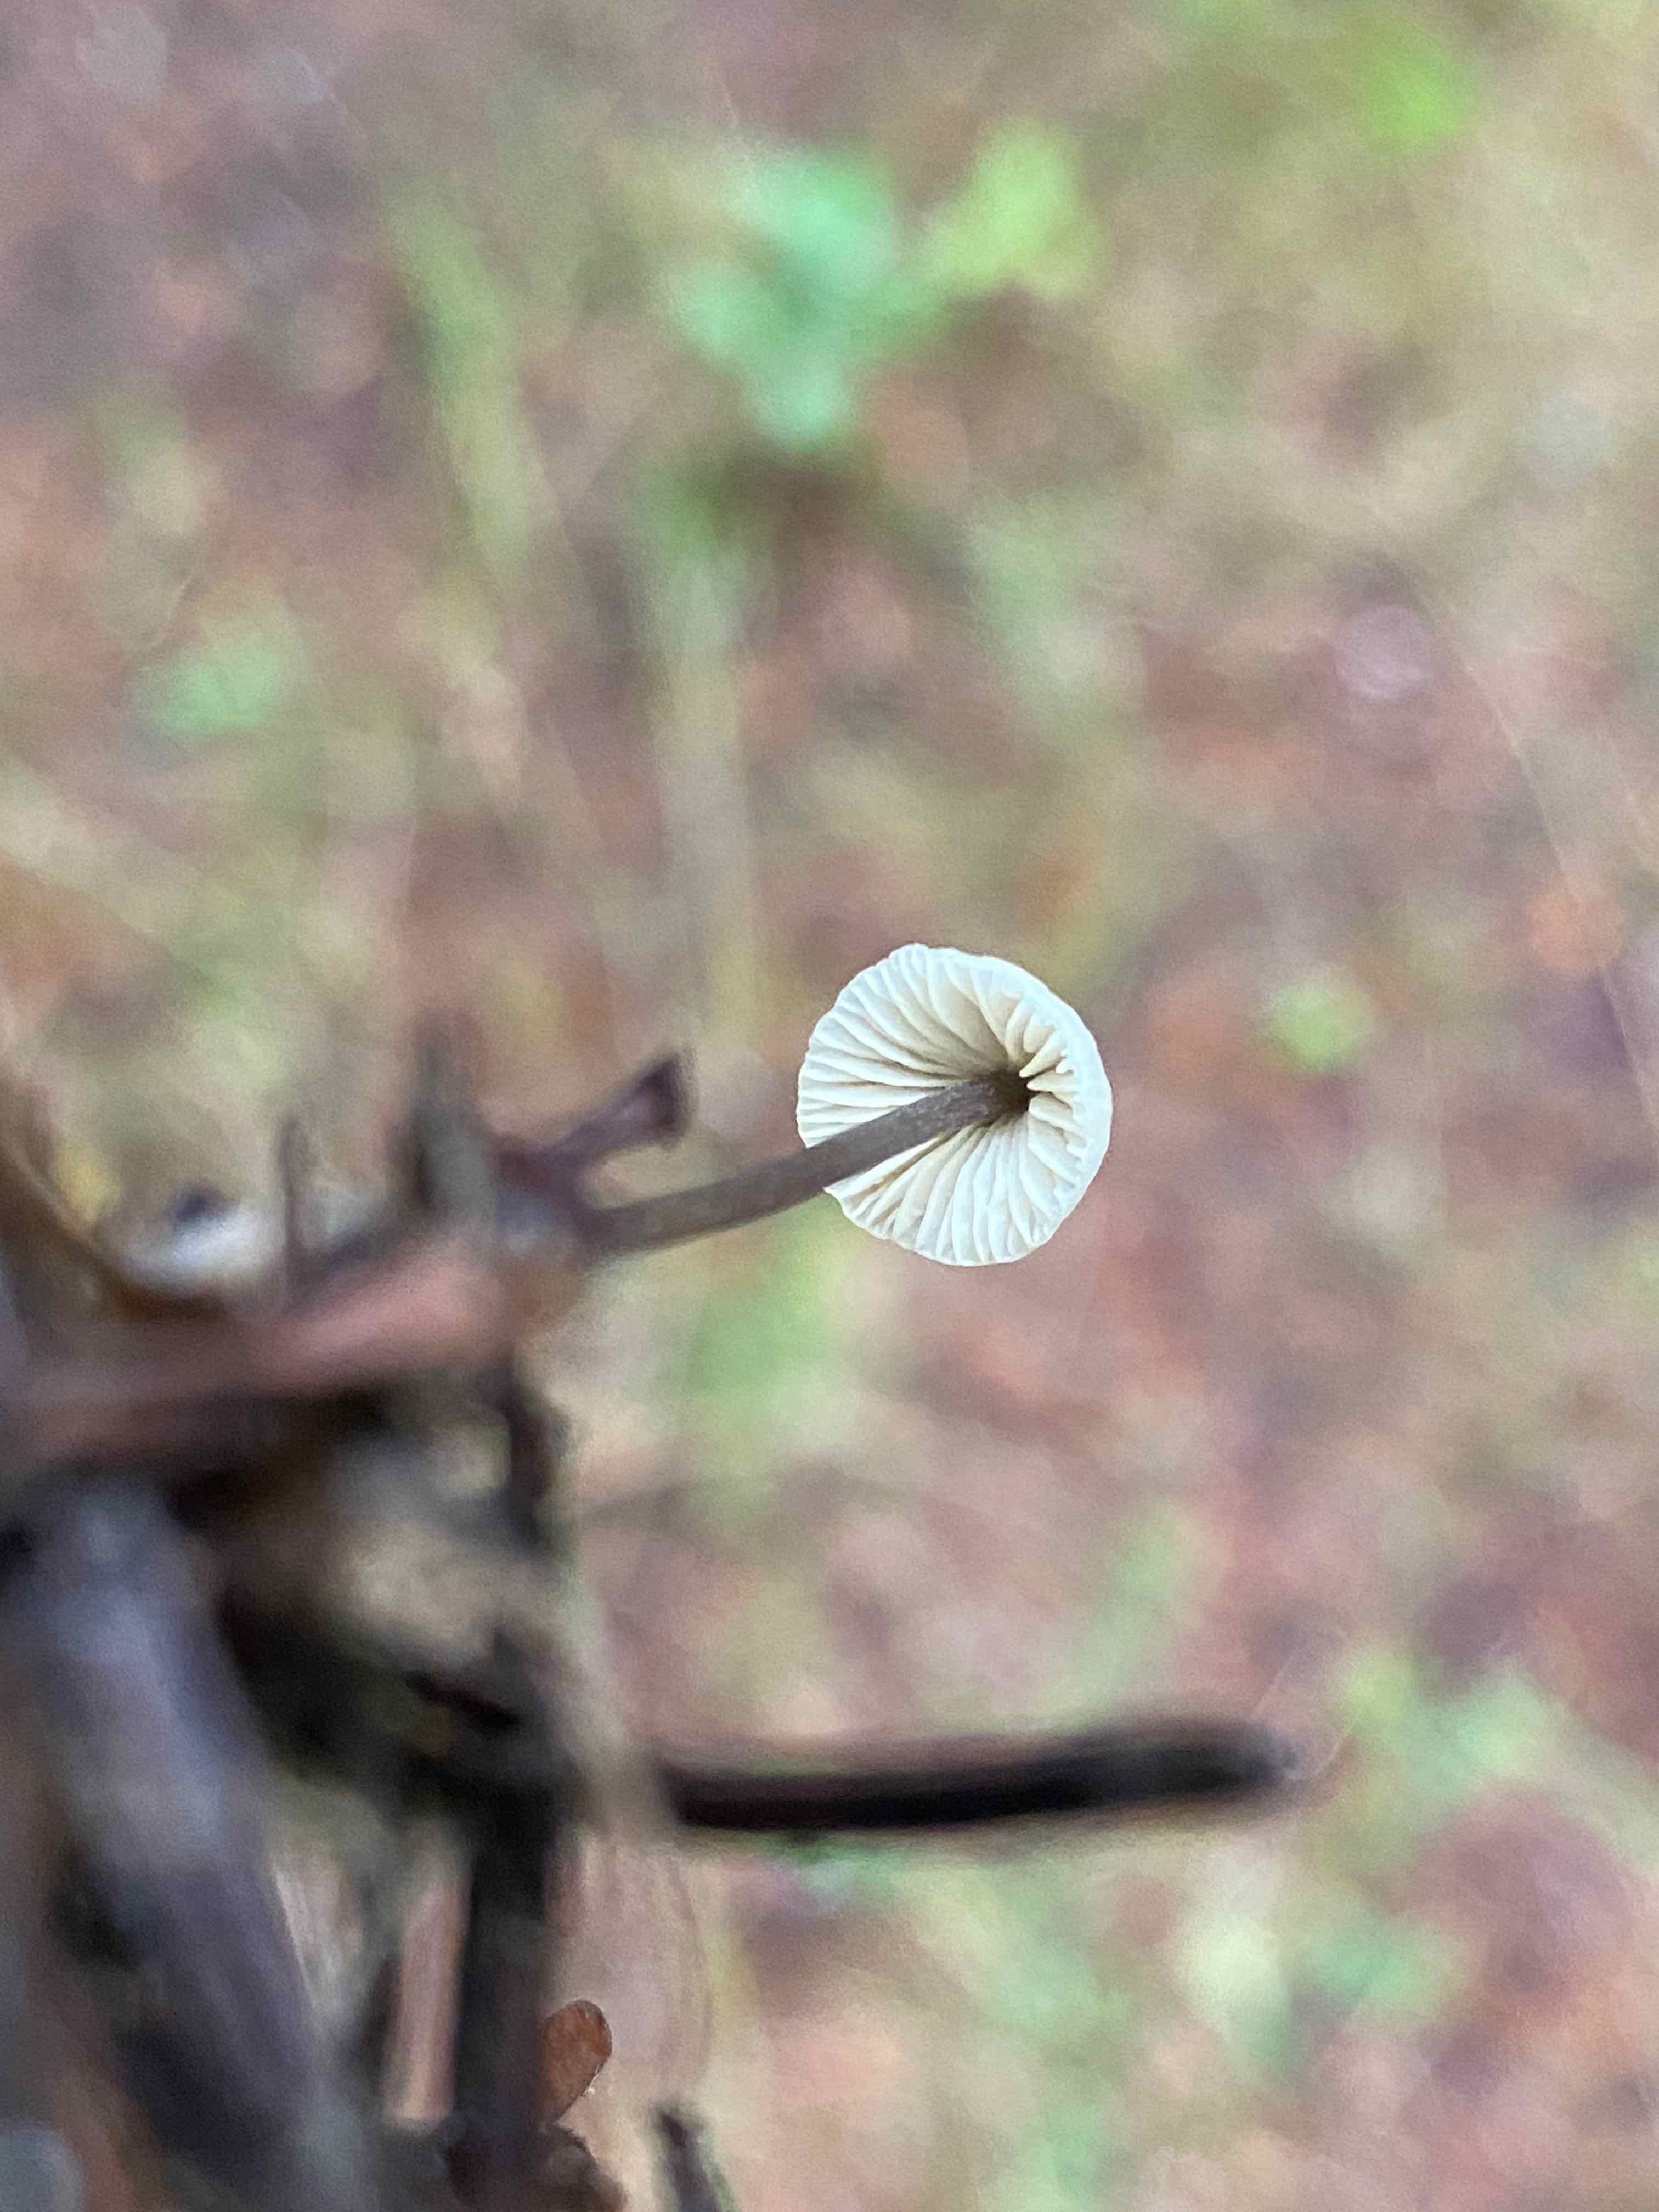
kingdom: Fungi
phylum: Basidiomycota
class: Agaricomycetes
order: Agaricales
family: Mycenaceae
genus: Mycena
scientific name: Mycena flavescens
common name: grågul huesvamp
